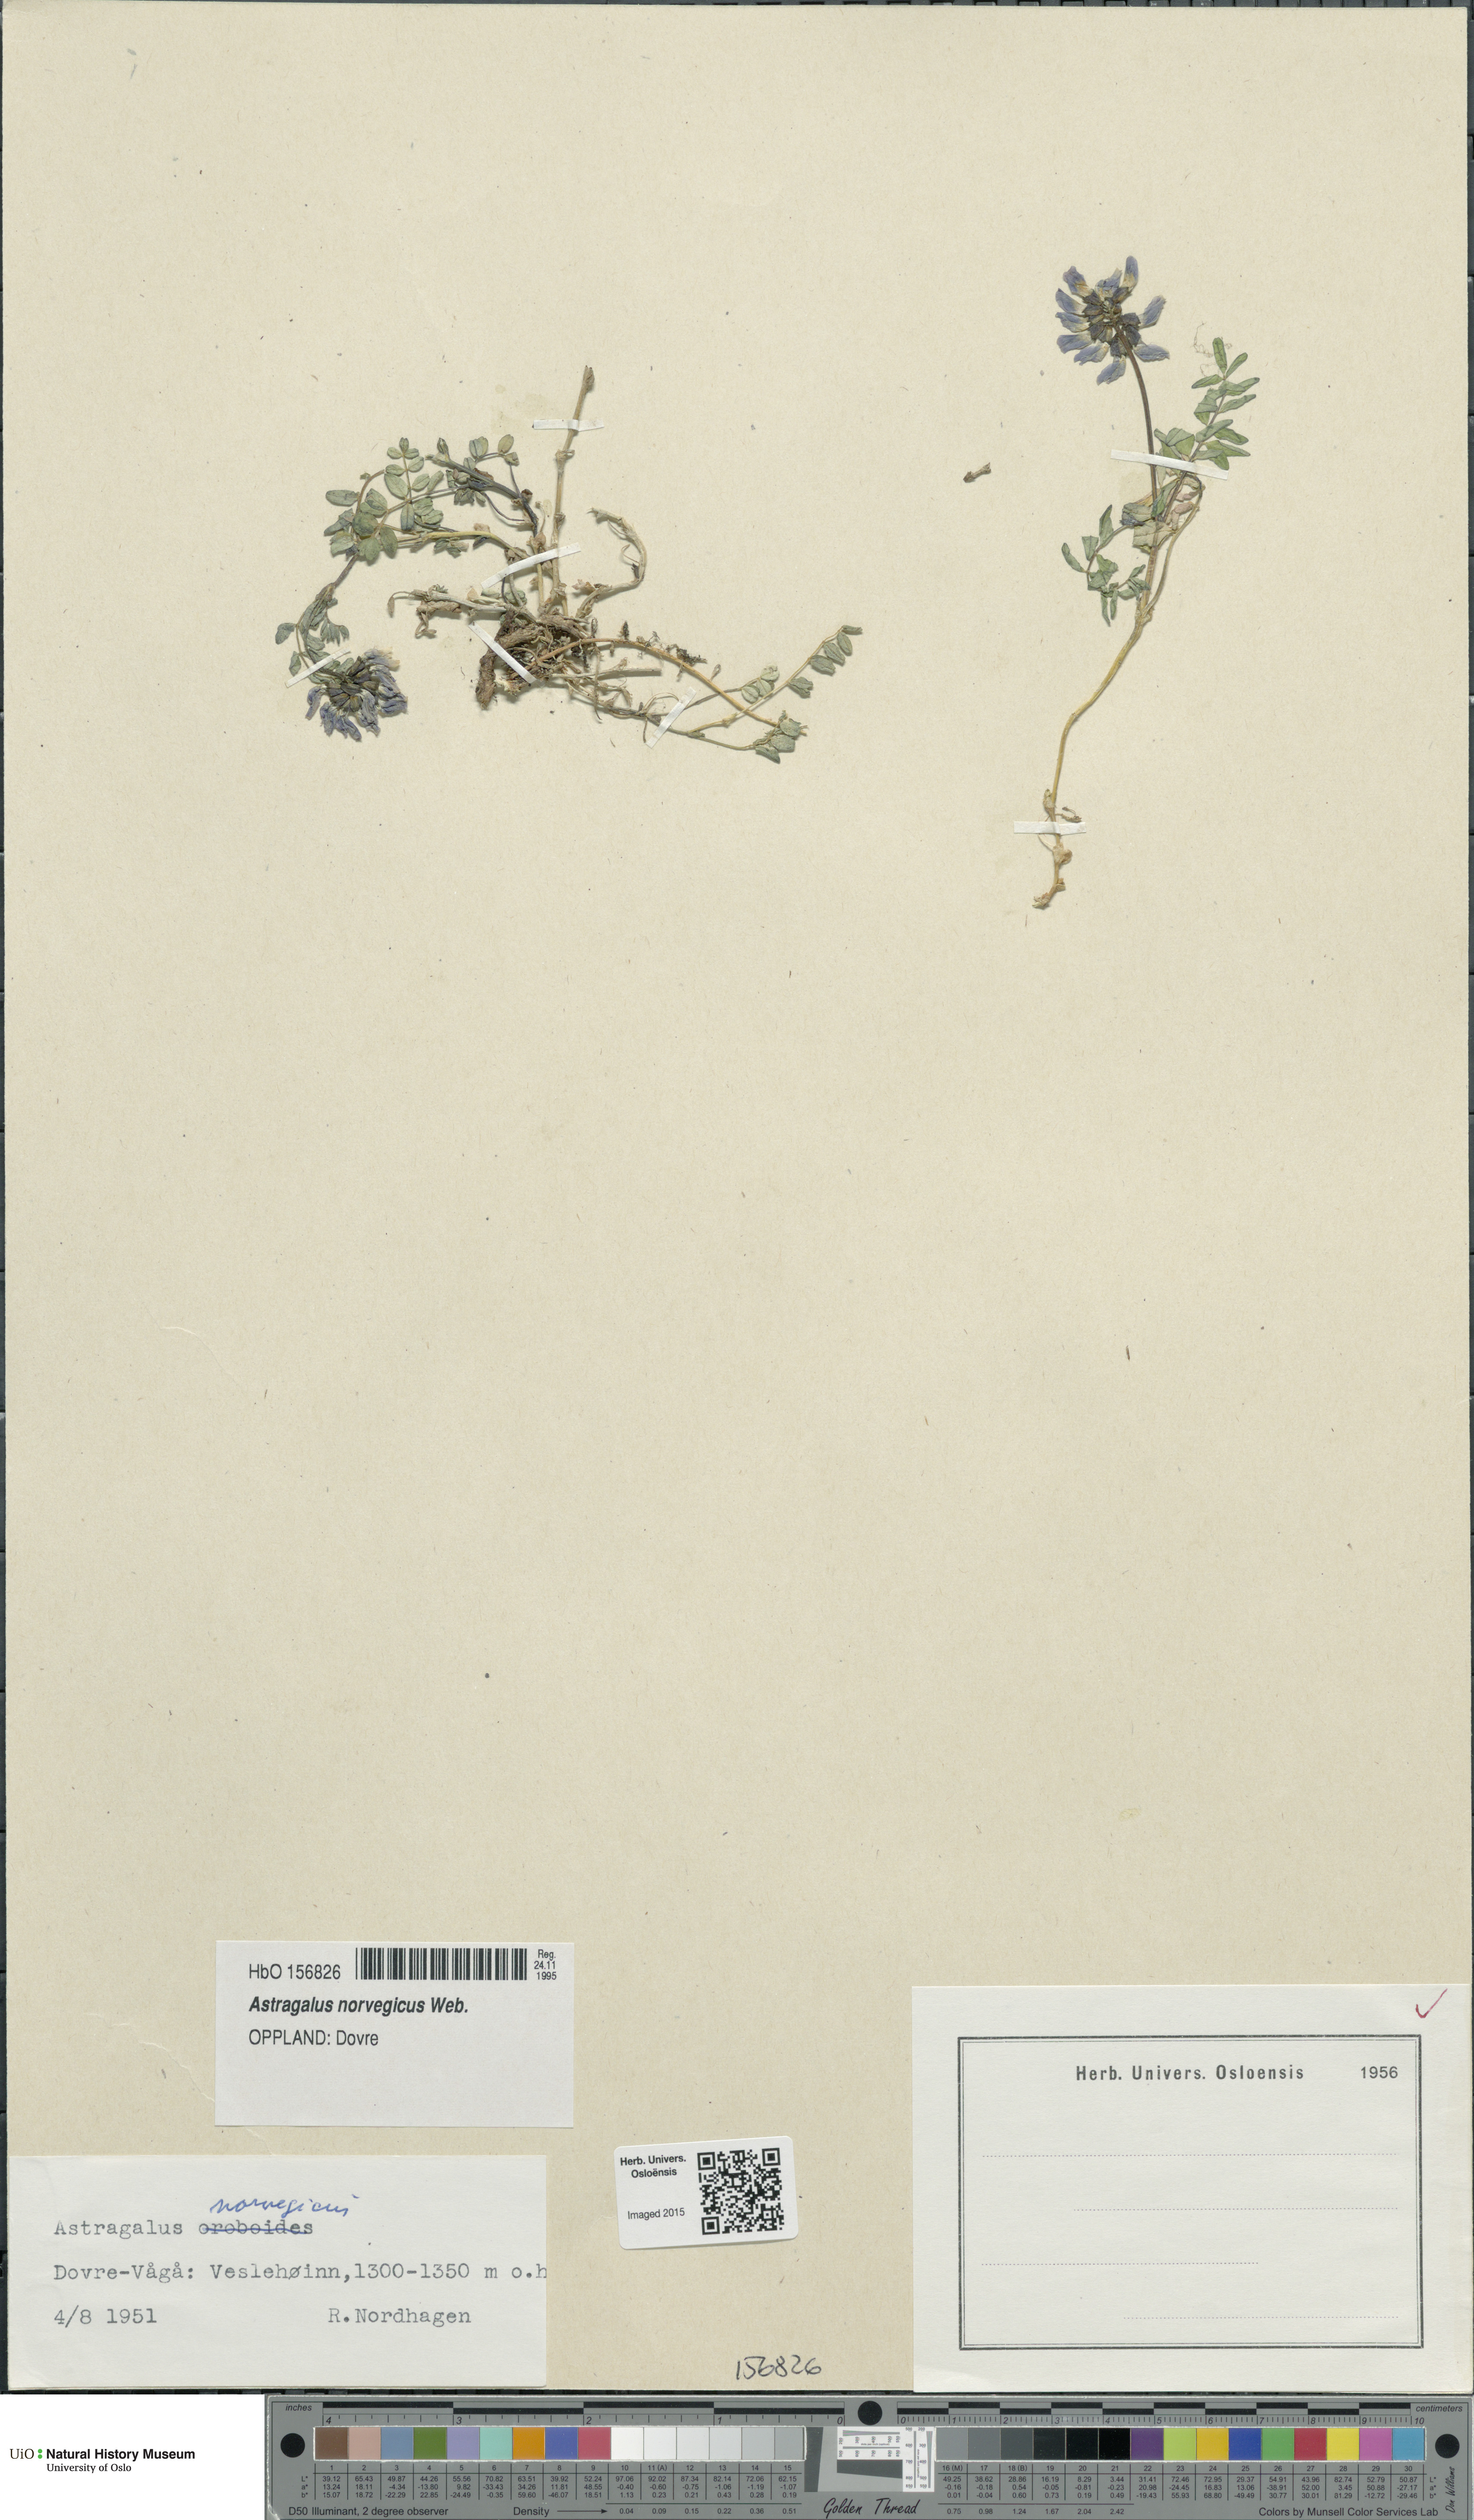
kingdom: Plantae
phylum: Tracheophyta
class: Magnoliopsida
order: Fabales
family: Fabaceae
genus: Astragalus
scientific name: Astragalus norvegicus
